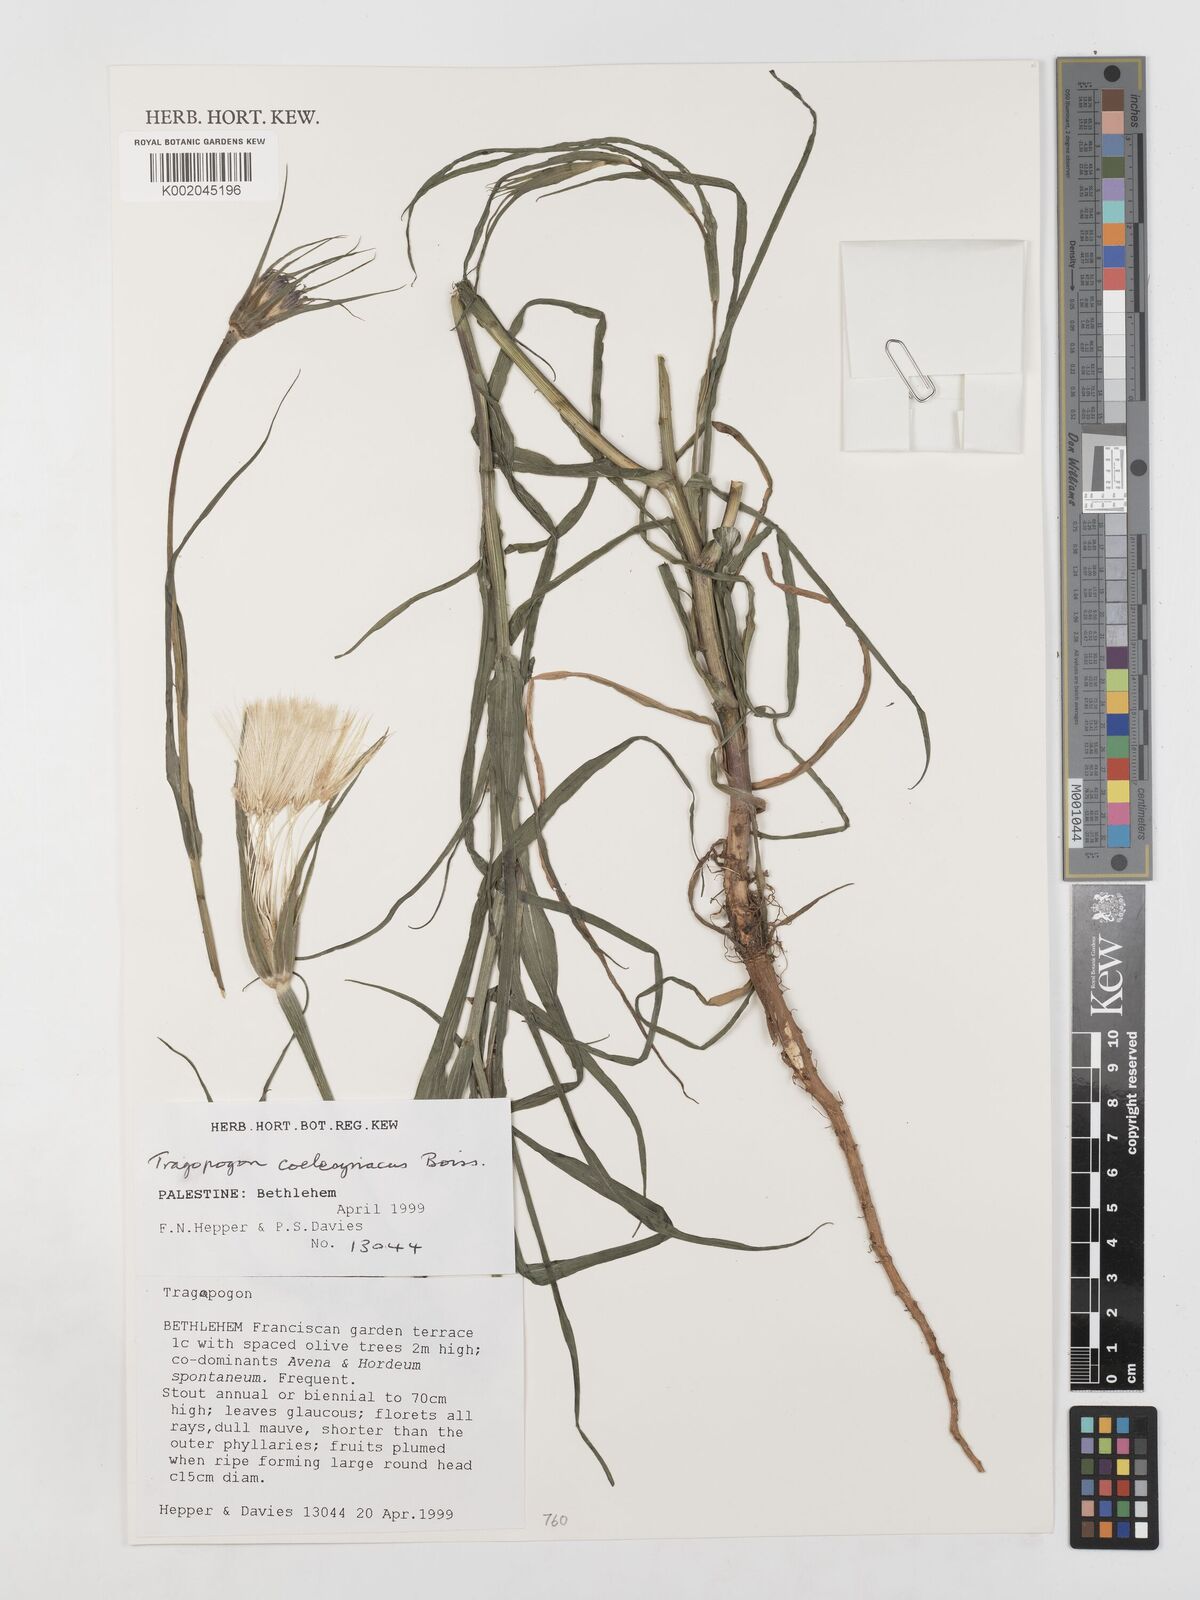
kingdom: Plantae
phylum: Tracheophyta
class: Magnoliopsida
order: Asterales
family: Asteraceae
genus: Tragopogon
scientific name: Tragopogon coelesyriacus
